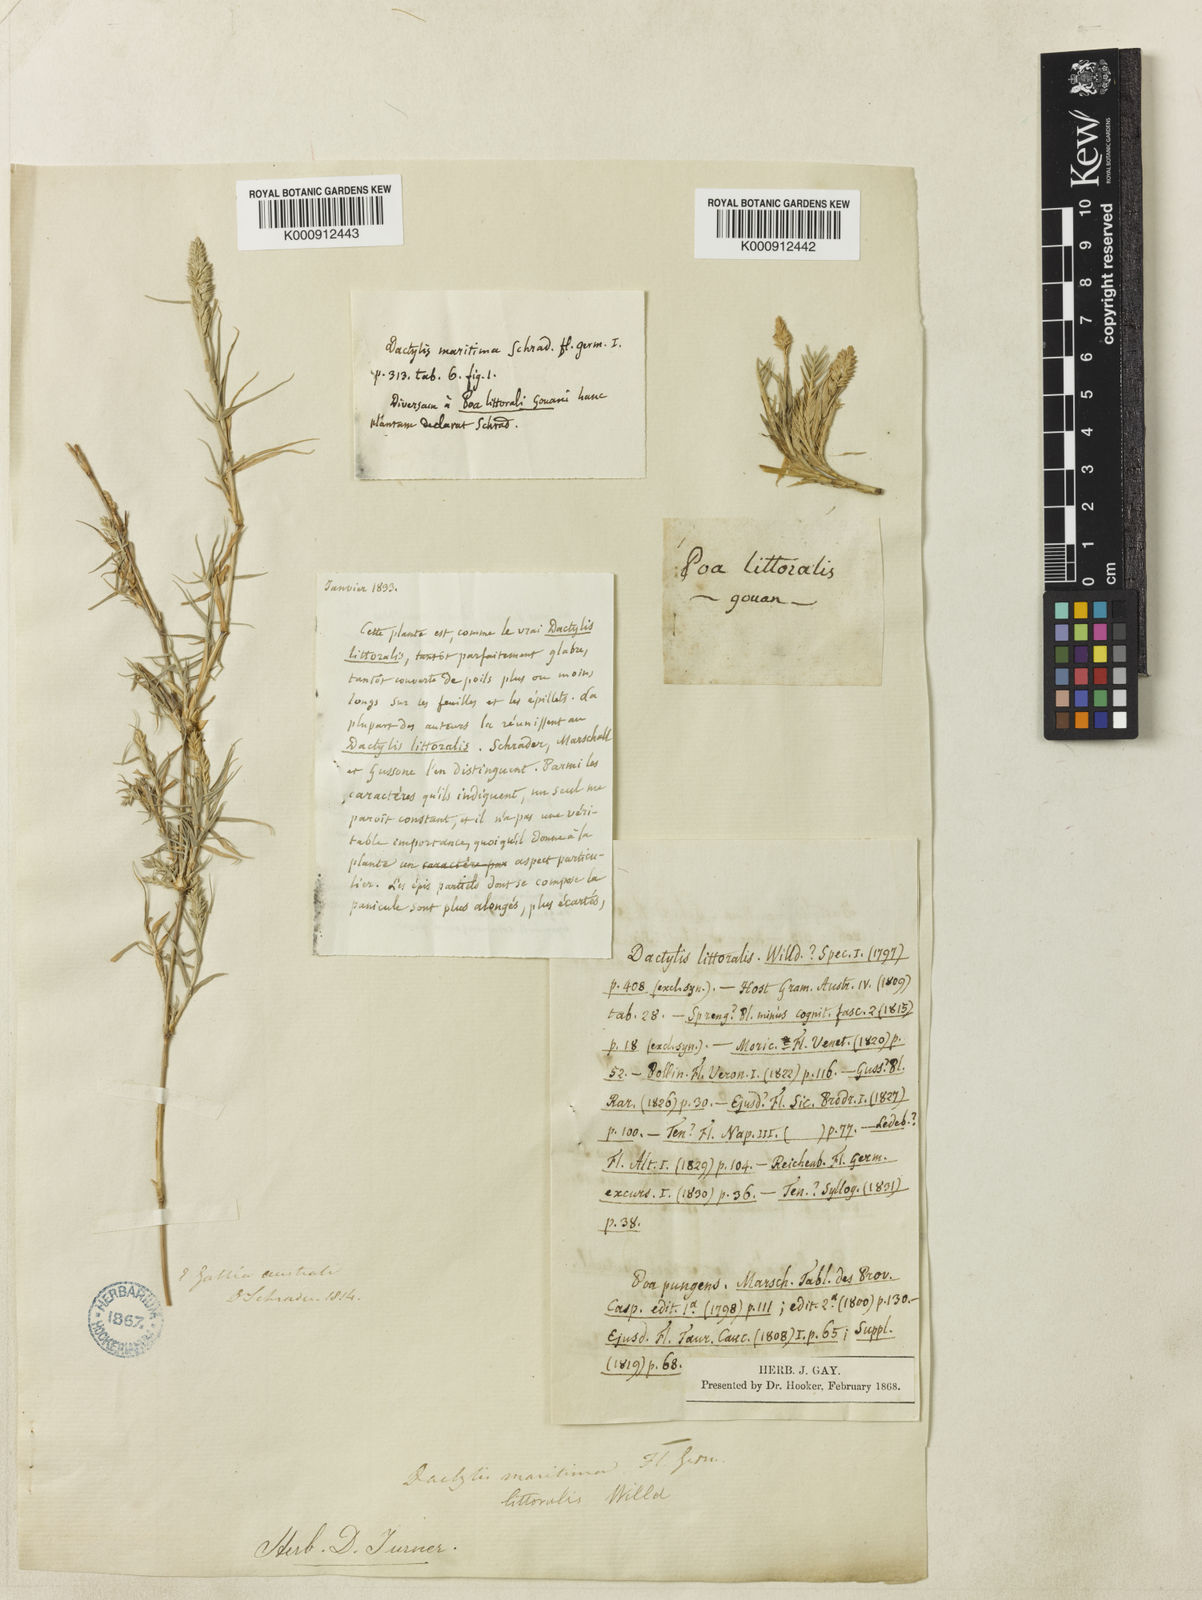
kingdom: Plantae
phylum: Tracheophyta
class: Liliopsida
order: Poales
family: Poaceae
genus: Aeluropus
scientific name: Aeluropus littoralis
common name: Indian walnut
